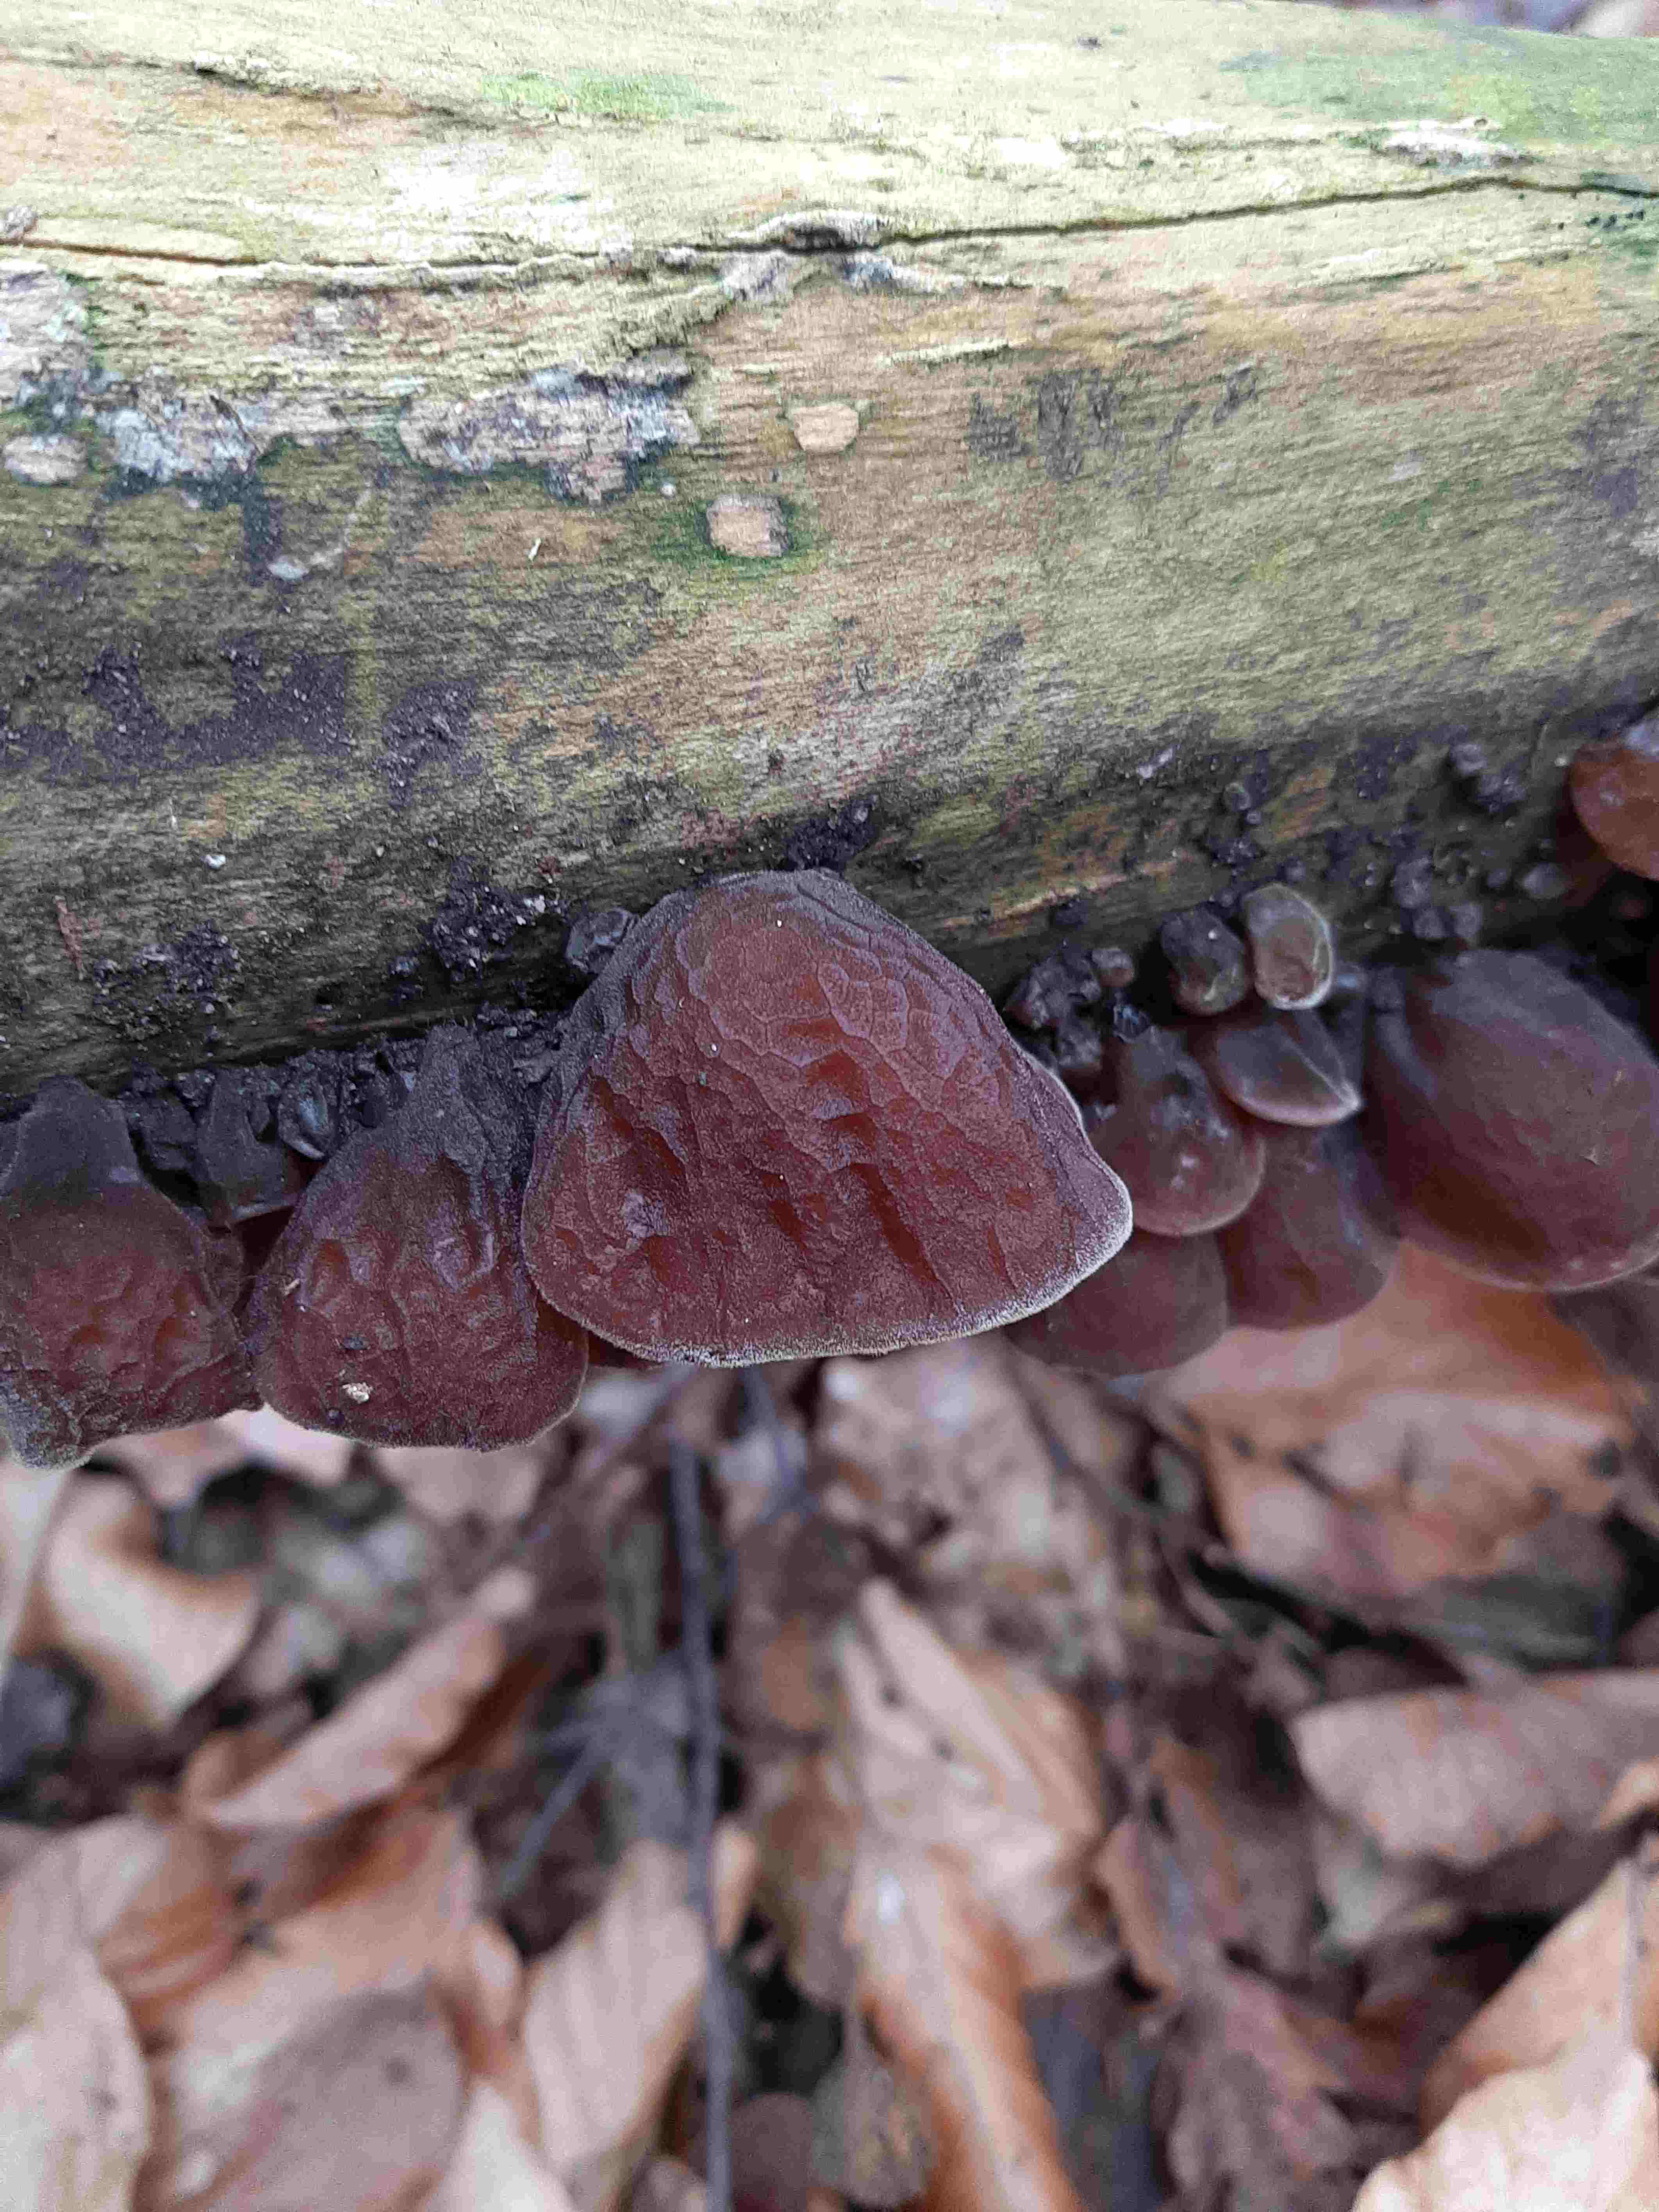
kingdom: Fungi
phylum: Basidiomycota
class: Agaricomycetes
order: Auriculariales
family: Auriculariaceae
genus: Auricularia
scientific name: Auricularia auricula-judae
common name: almindelig judasøre
